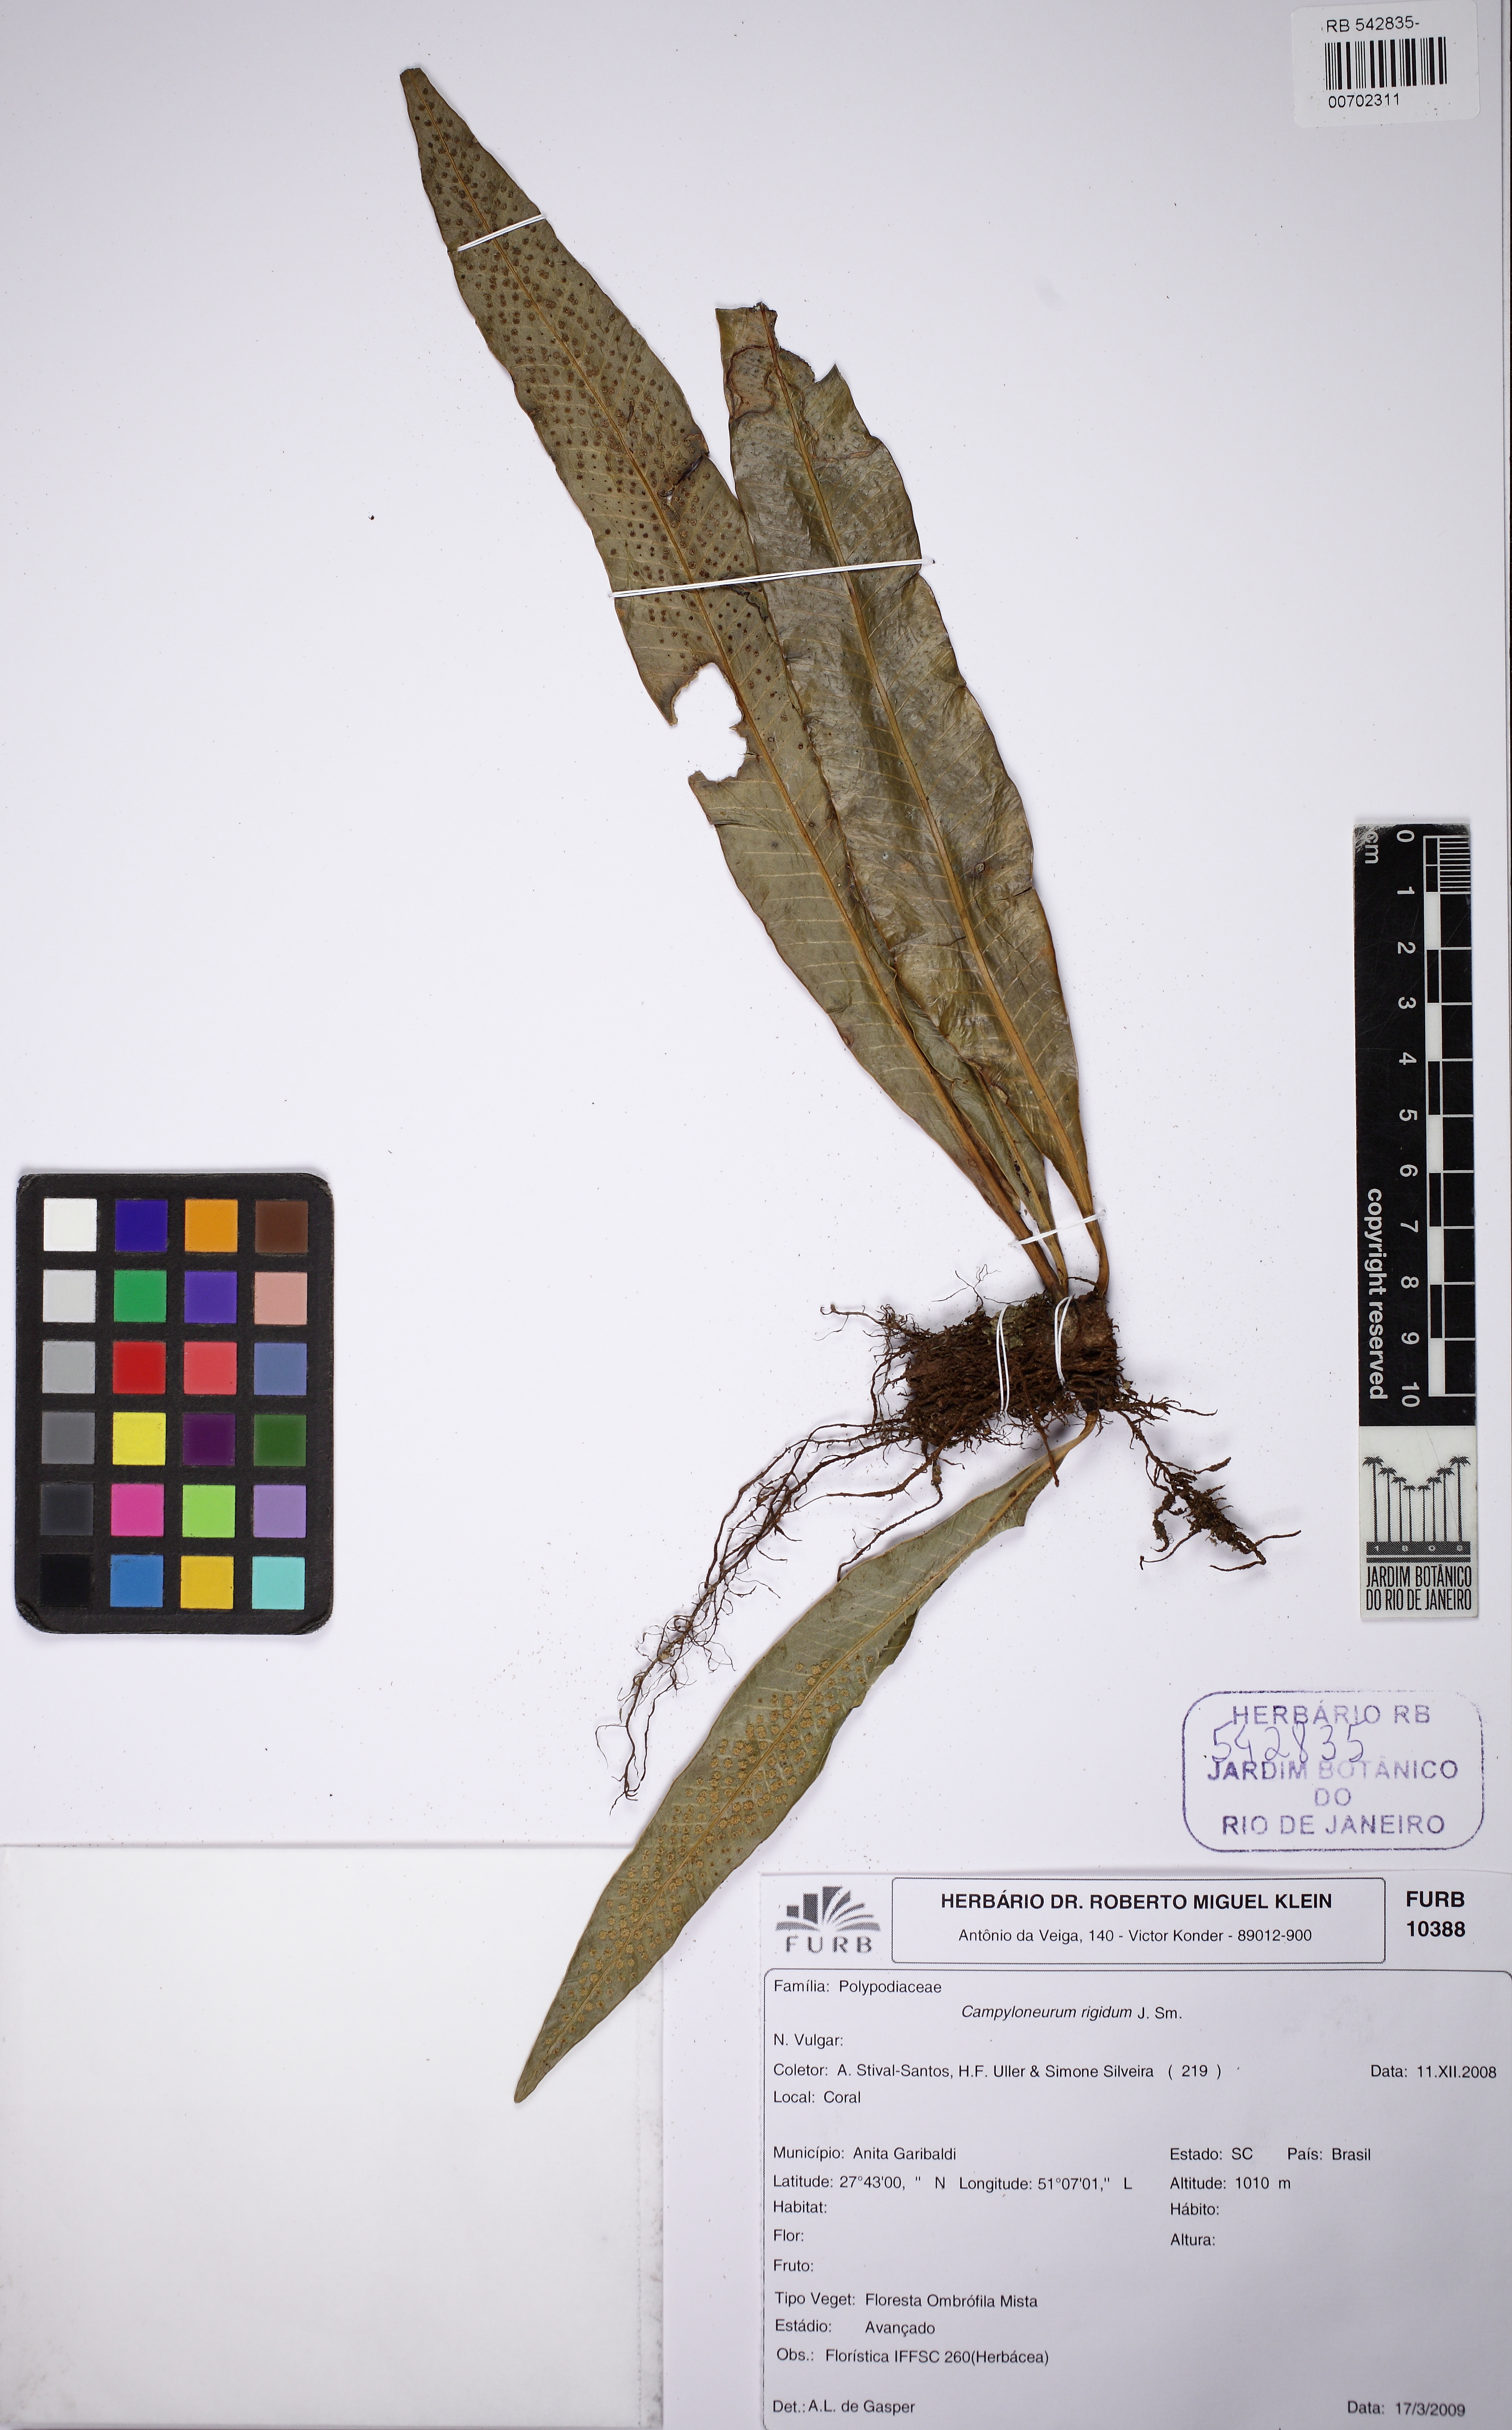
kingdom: Plantae
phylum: Tracheophyta
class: Polypodiopsida
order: Polypodiales
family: Polypodiaceae
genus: Campyloneurum
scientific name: Campyloneurum rigidum
